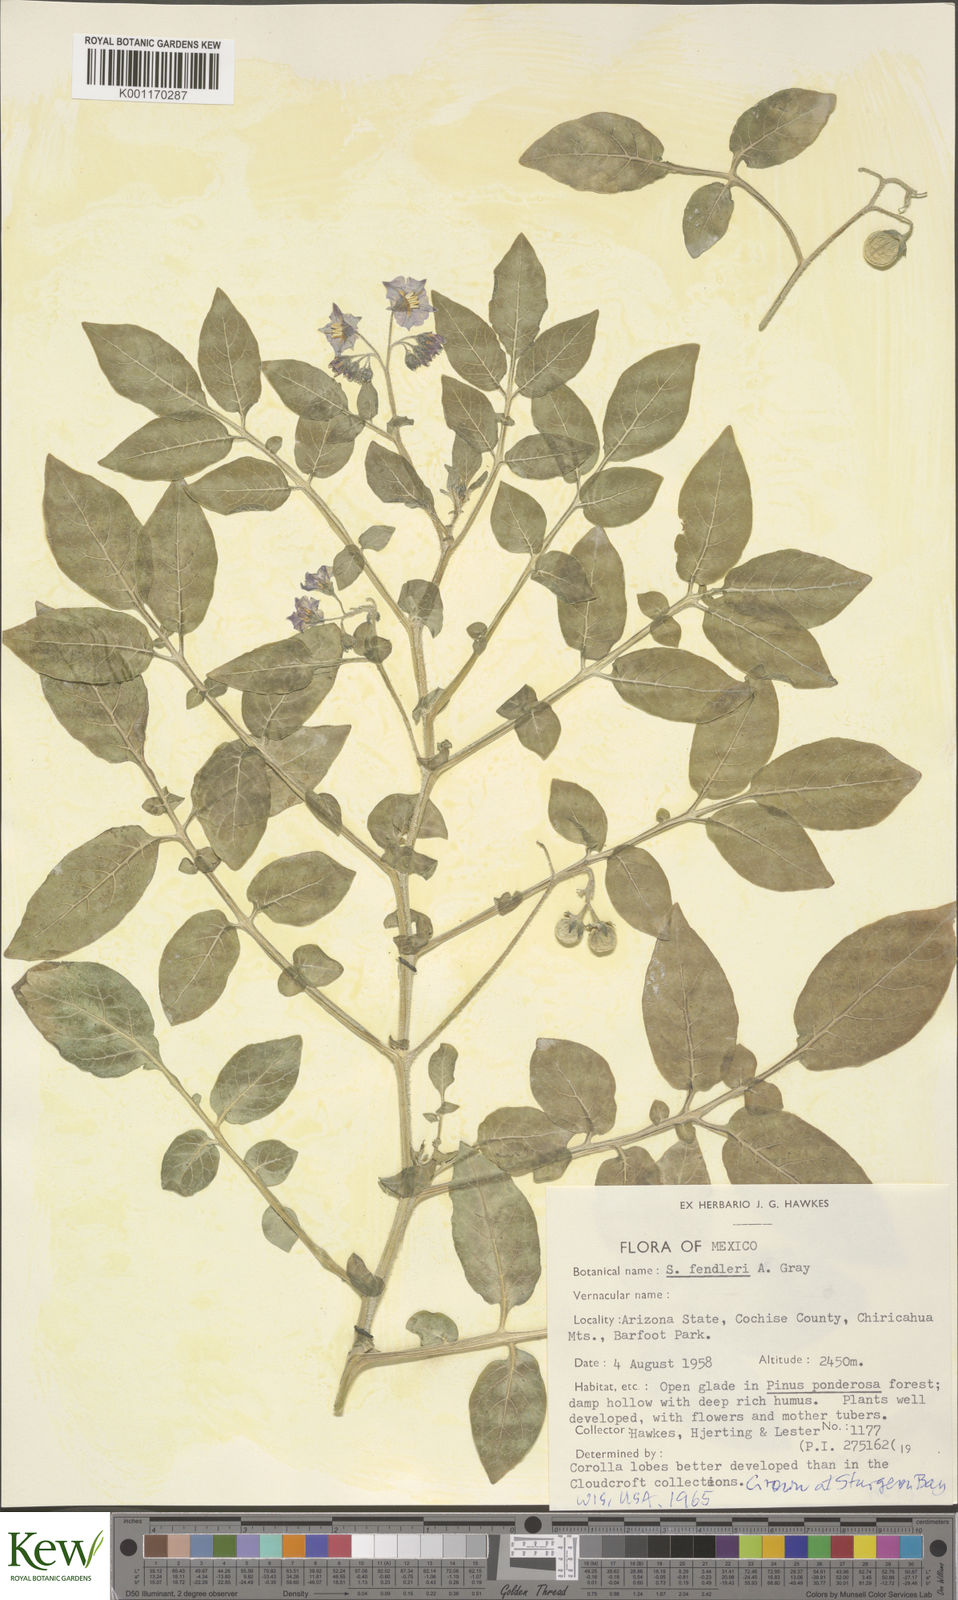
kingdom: Plantae
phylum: Tracheophyta
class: Magnoliopsida
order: Solanales
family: Solanaceae
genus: Solanum
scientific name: Solanum stoloniferum
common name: Fendler's nighshade
